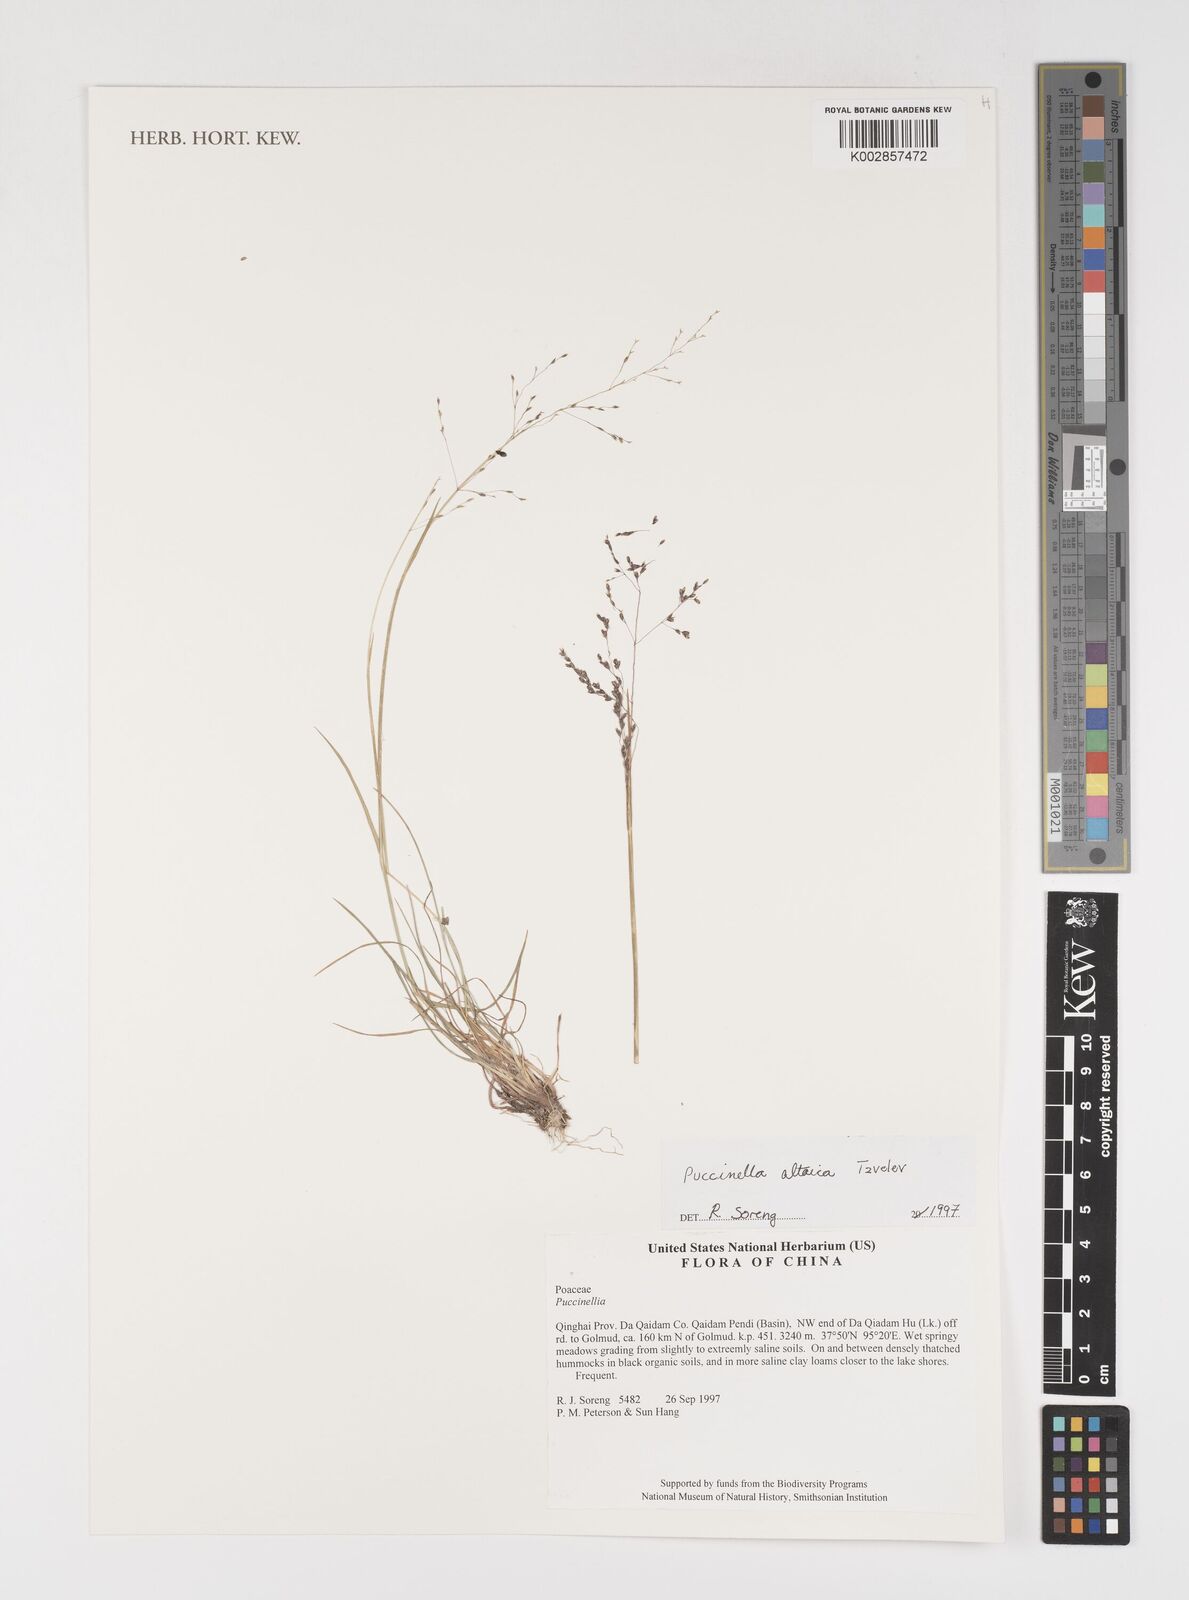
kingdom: Plantae
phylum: Tracheophyta
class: Liliopsida
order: Poales
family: Poaceae
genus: Puccinellia
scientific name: Puccinellia altaica
